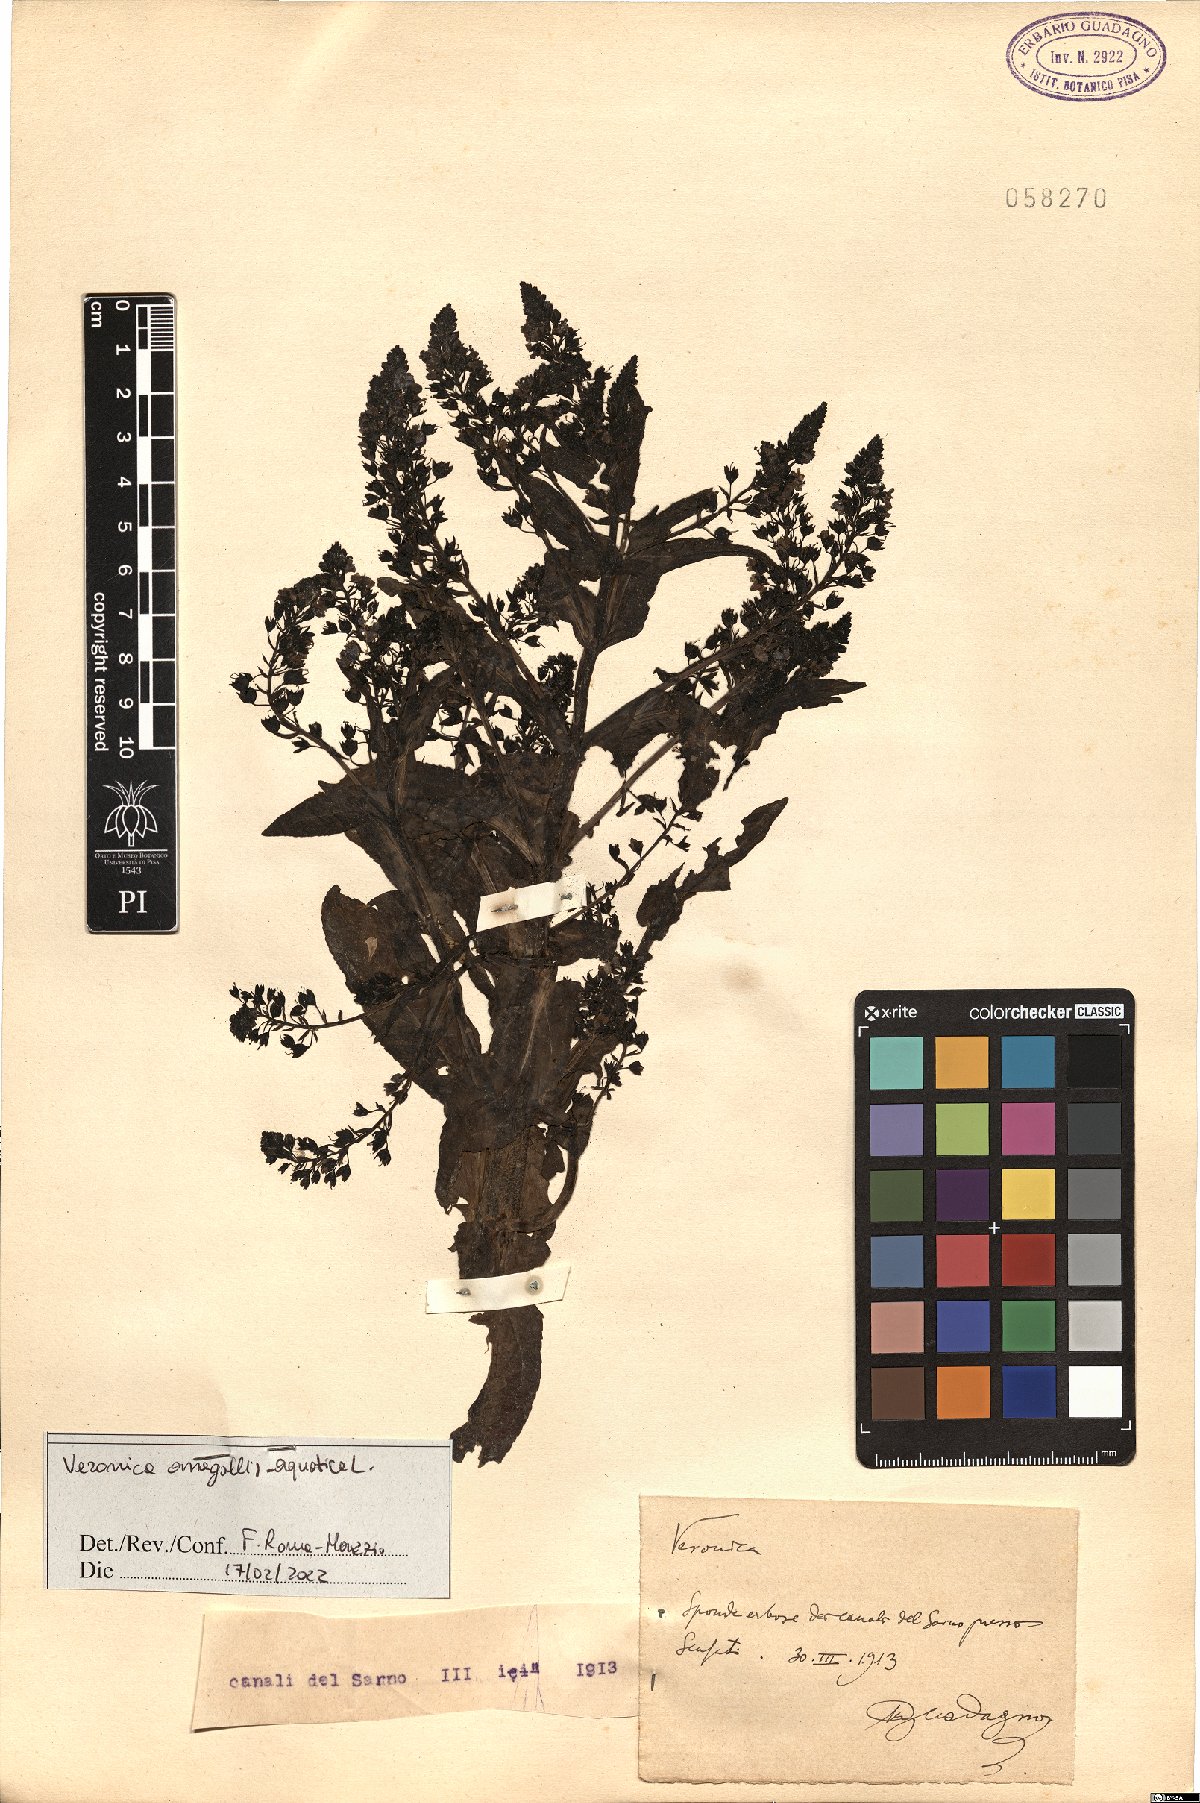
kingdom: Plantae
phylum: Tracheophyta
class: Magnoliopsida
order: Lamiales
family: Plantaginaceae
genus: Veronica
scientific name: Veronica anagallis-aquatica
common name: Water speedwell
